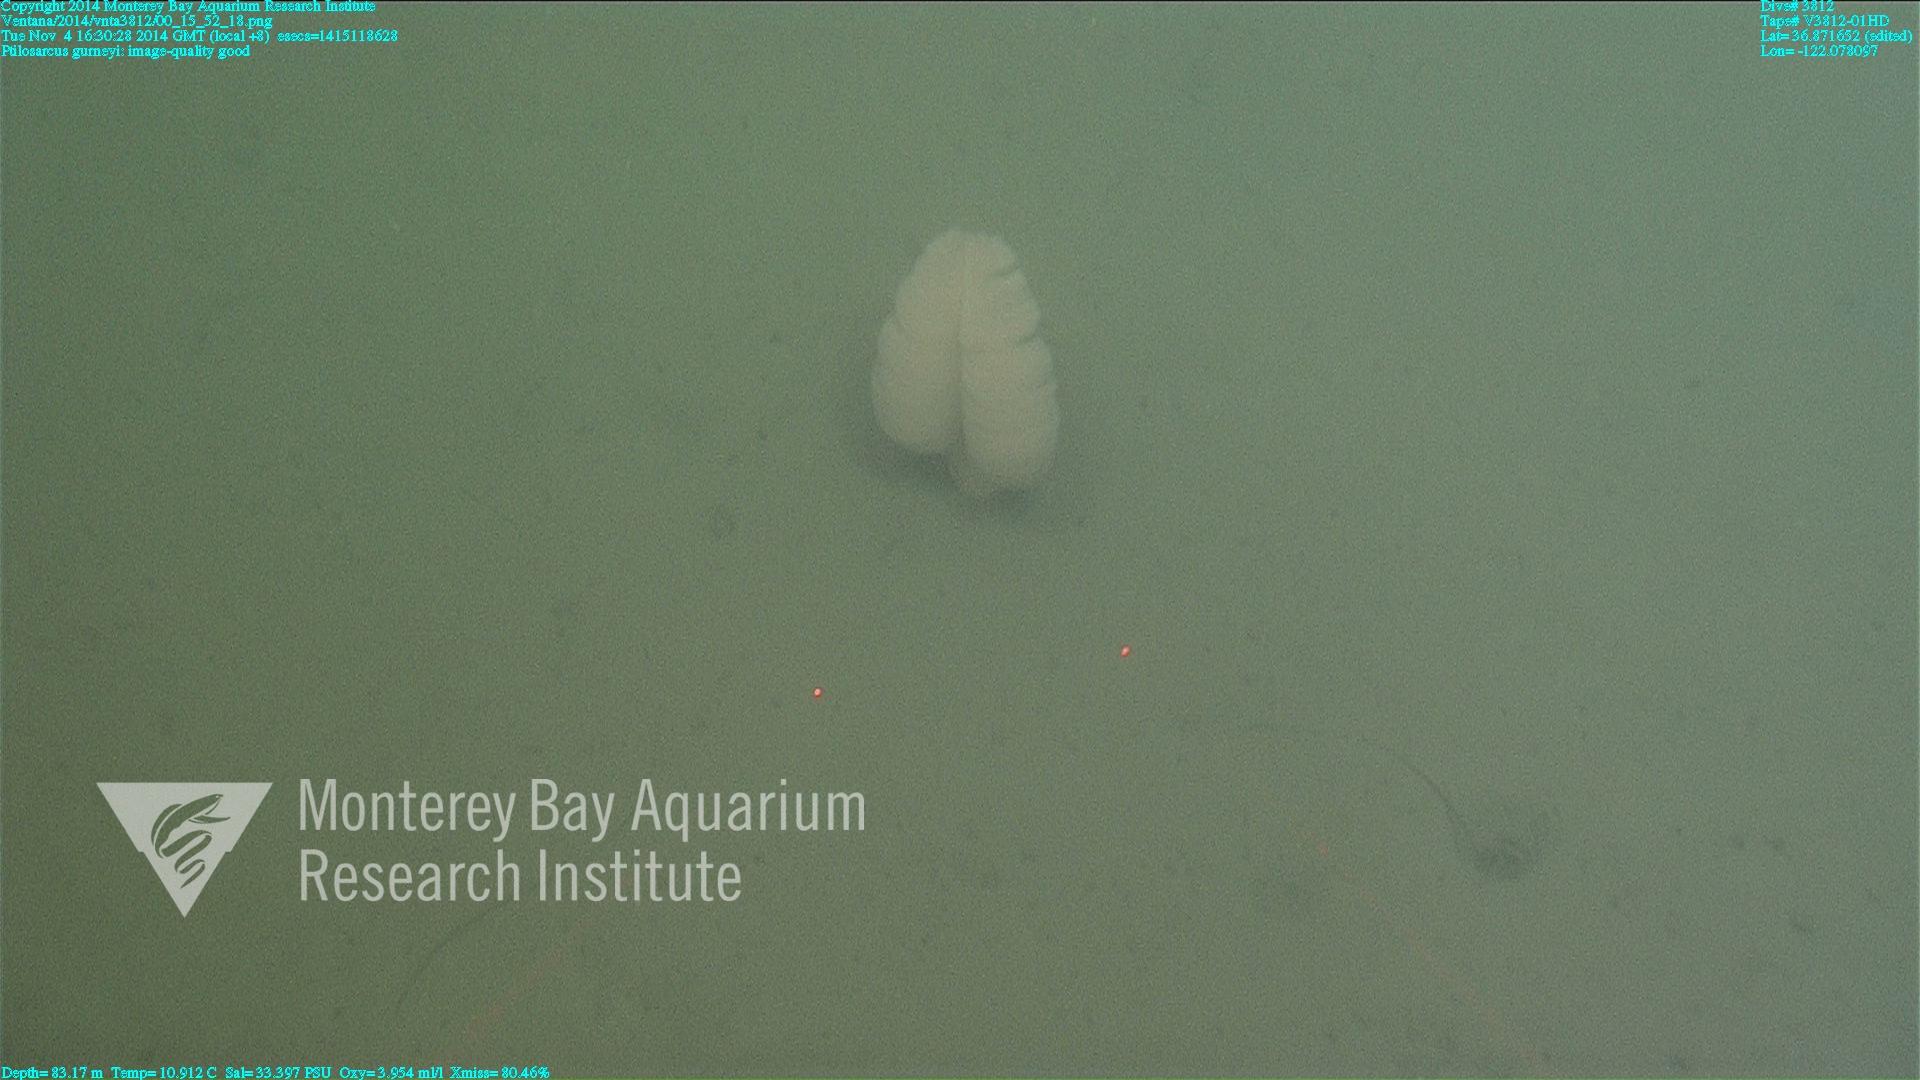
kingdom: Animalia
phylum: Cnidaria
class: Anthozoa
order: Scleralcyonacea
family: Pennatulidae
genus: Ptilosarcus
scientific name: Ptilosarcus gurneyi
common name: Gurney's sea pen
